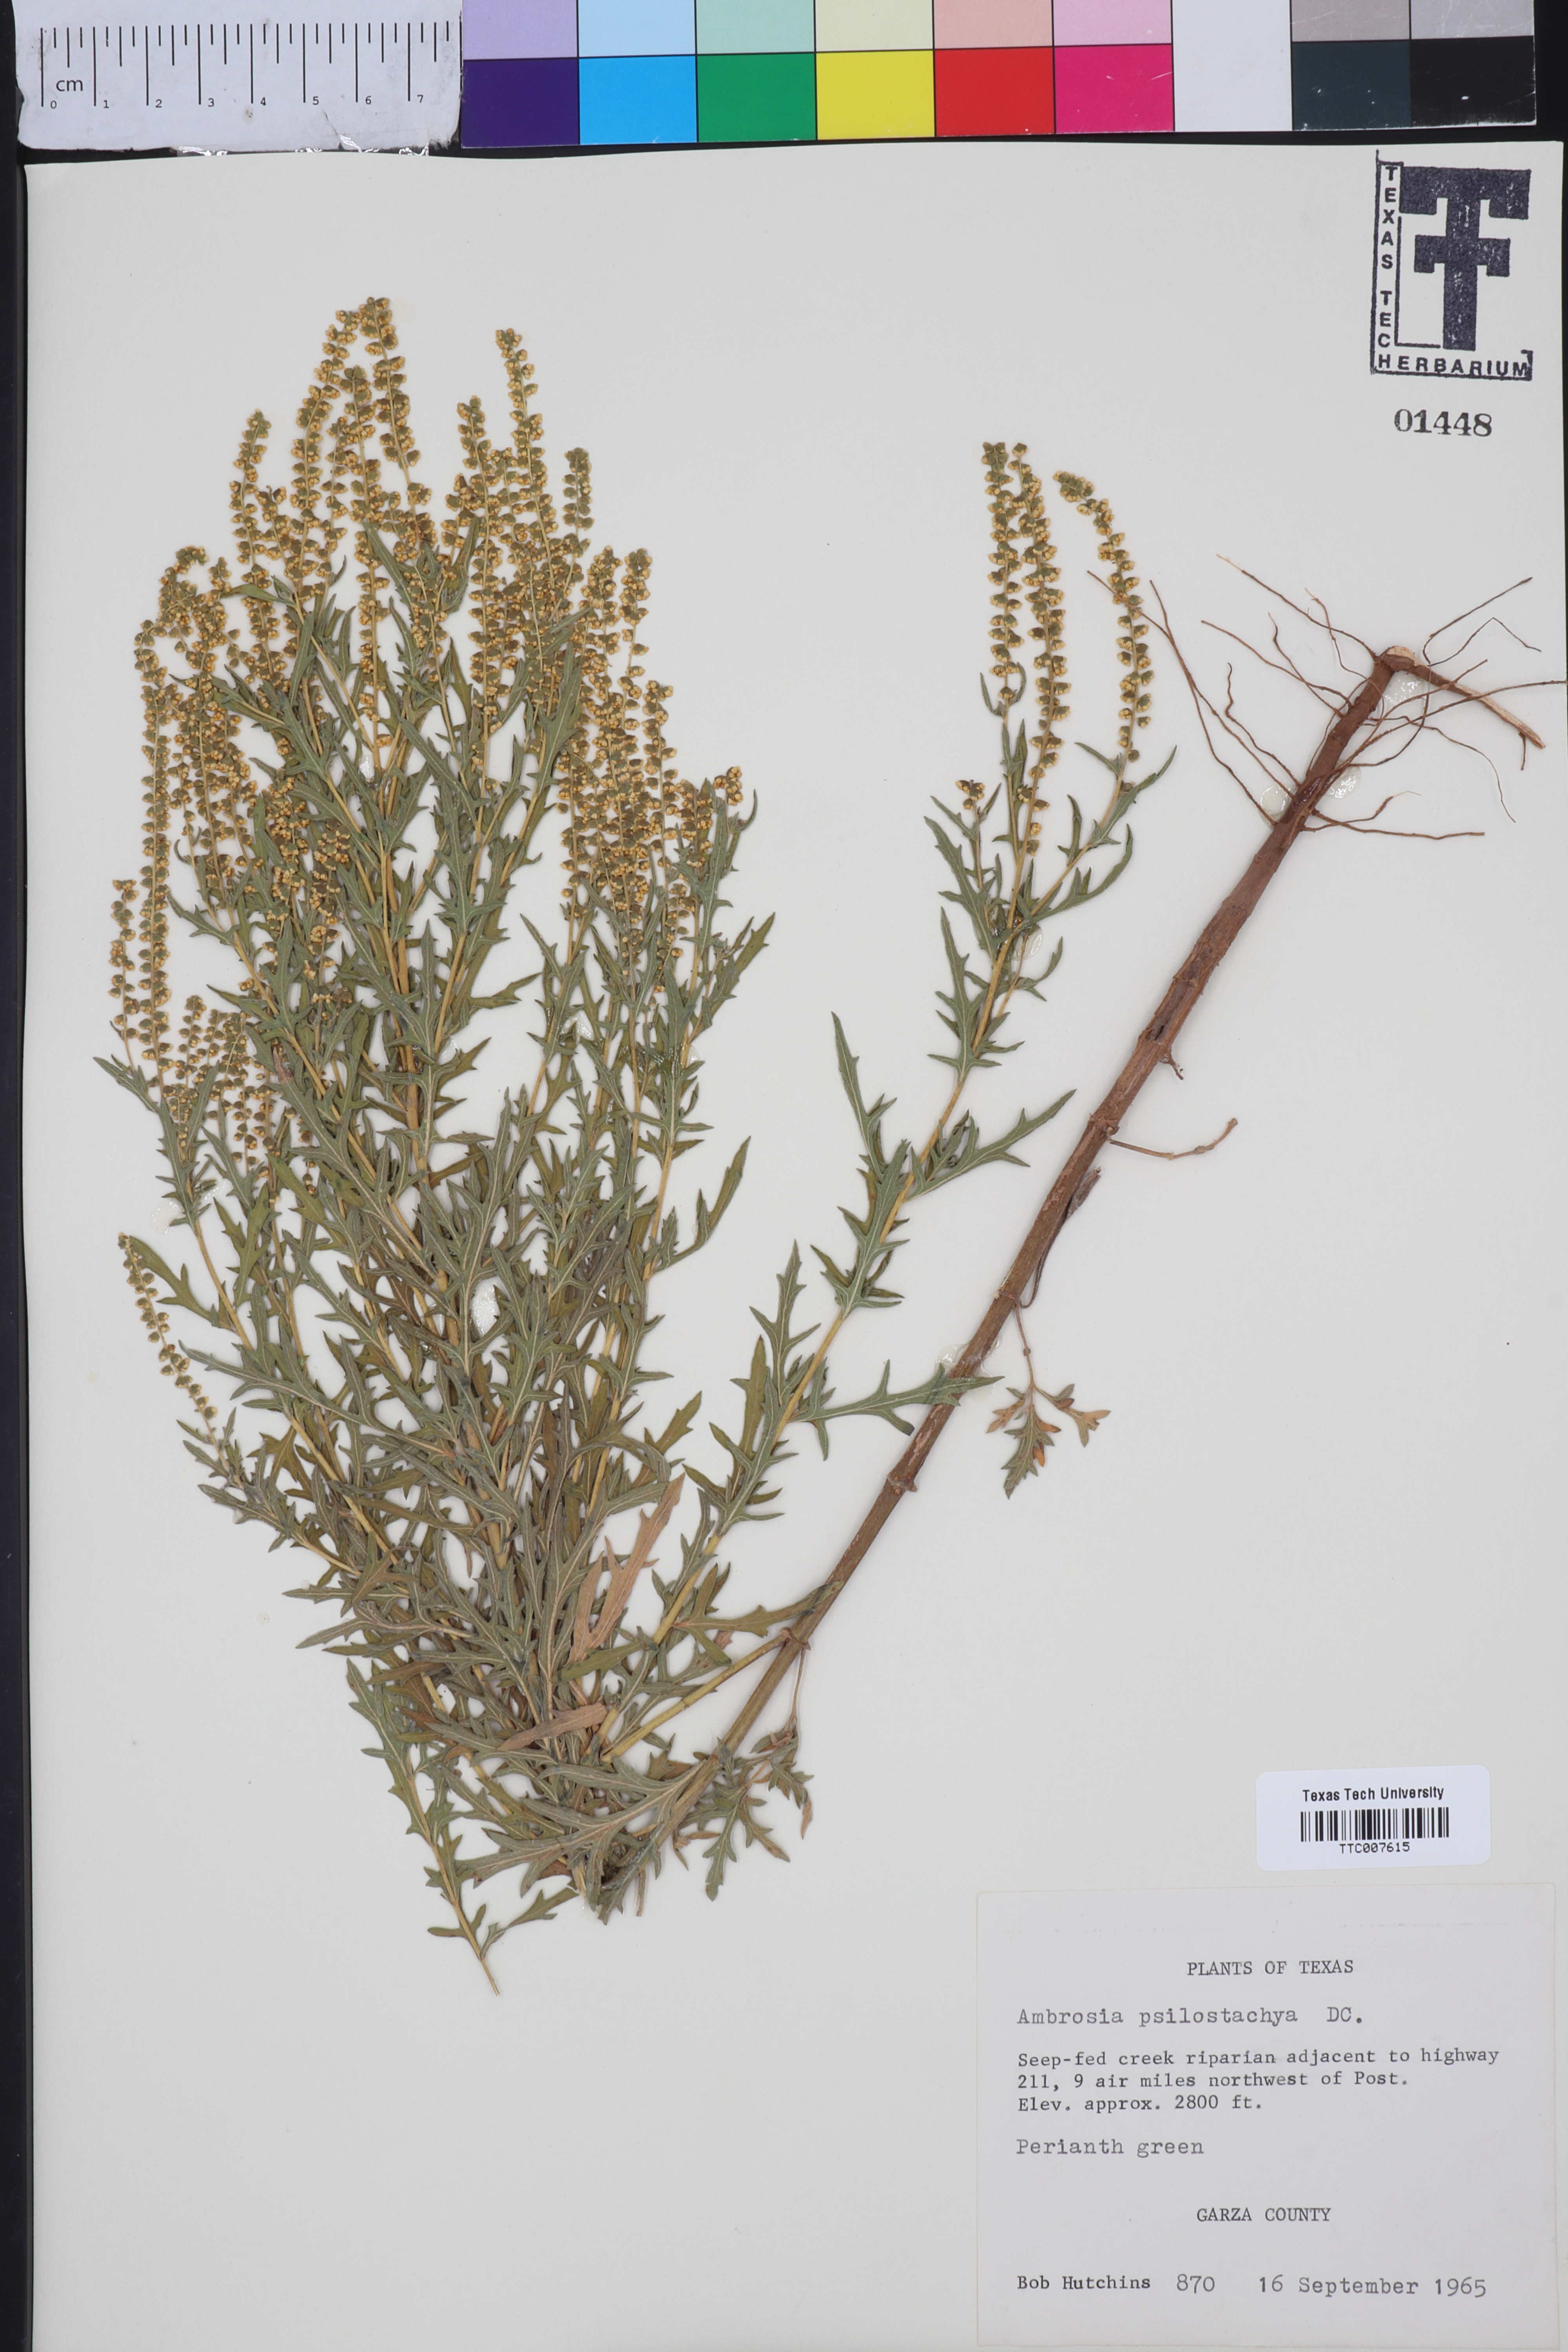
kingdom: Plantae
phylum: Tracheophyta
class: Magnoliopsida
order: Asterales
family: Asteraceae
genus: Ambrosia
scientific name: Ambrosia psilostachya
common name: Perennial ragweed
